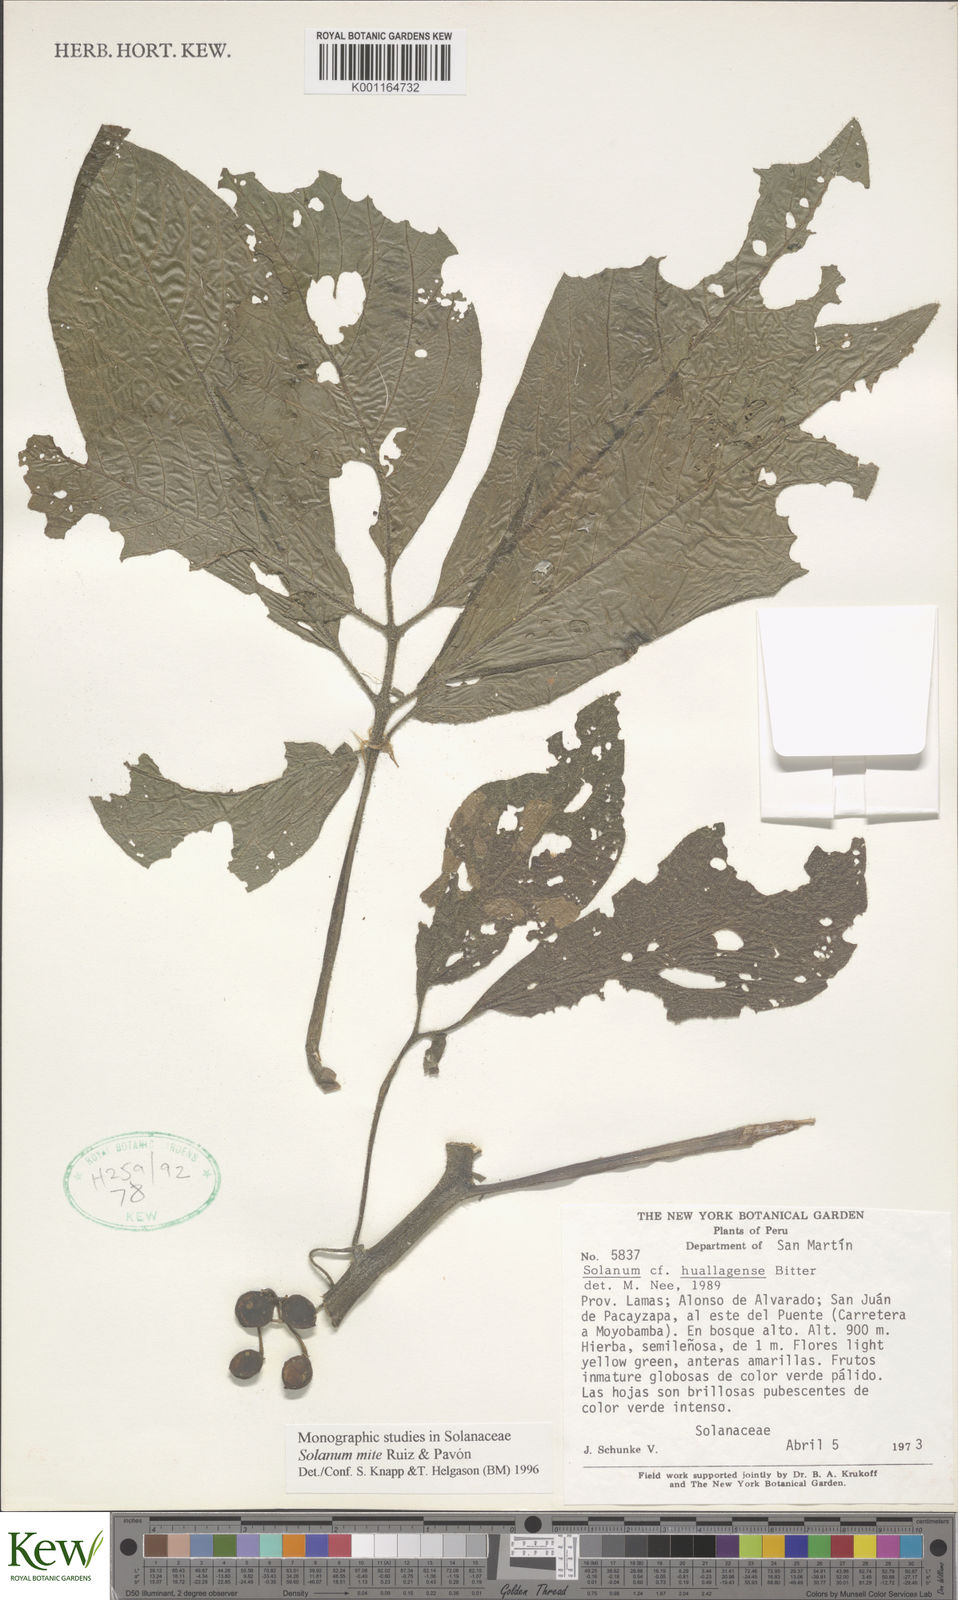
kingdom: Plantae
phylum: Tracheophyta
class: Magnoliopsida
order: Solanales
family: Solanaceae
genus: Solanum
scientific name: Solanum mite
